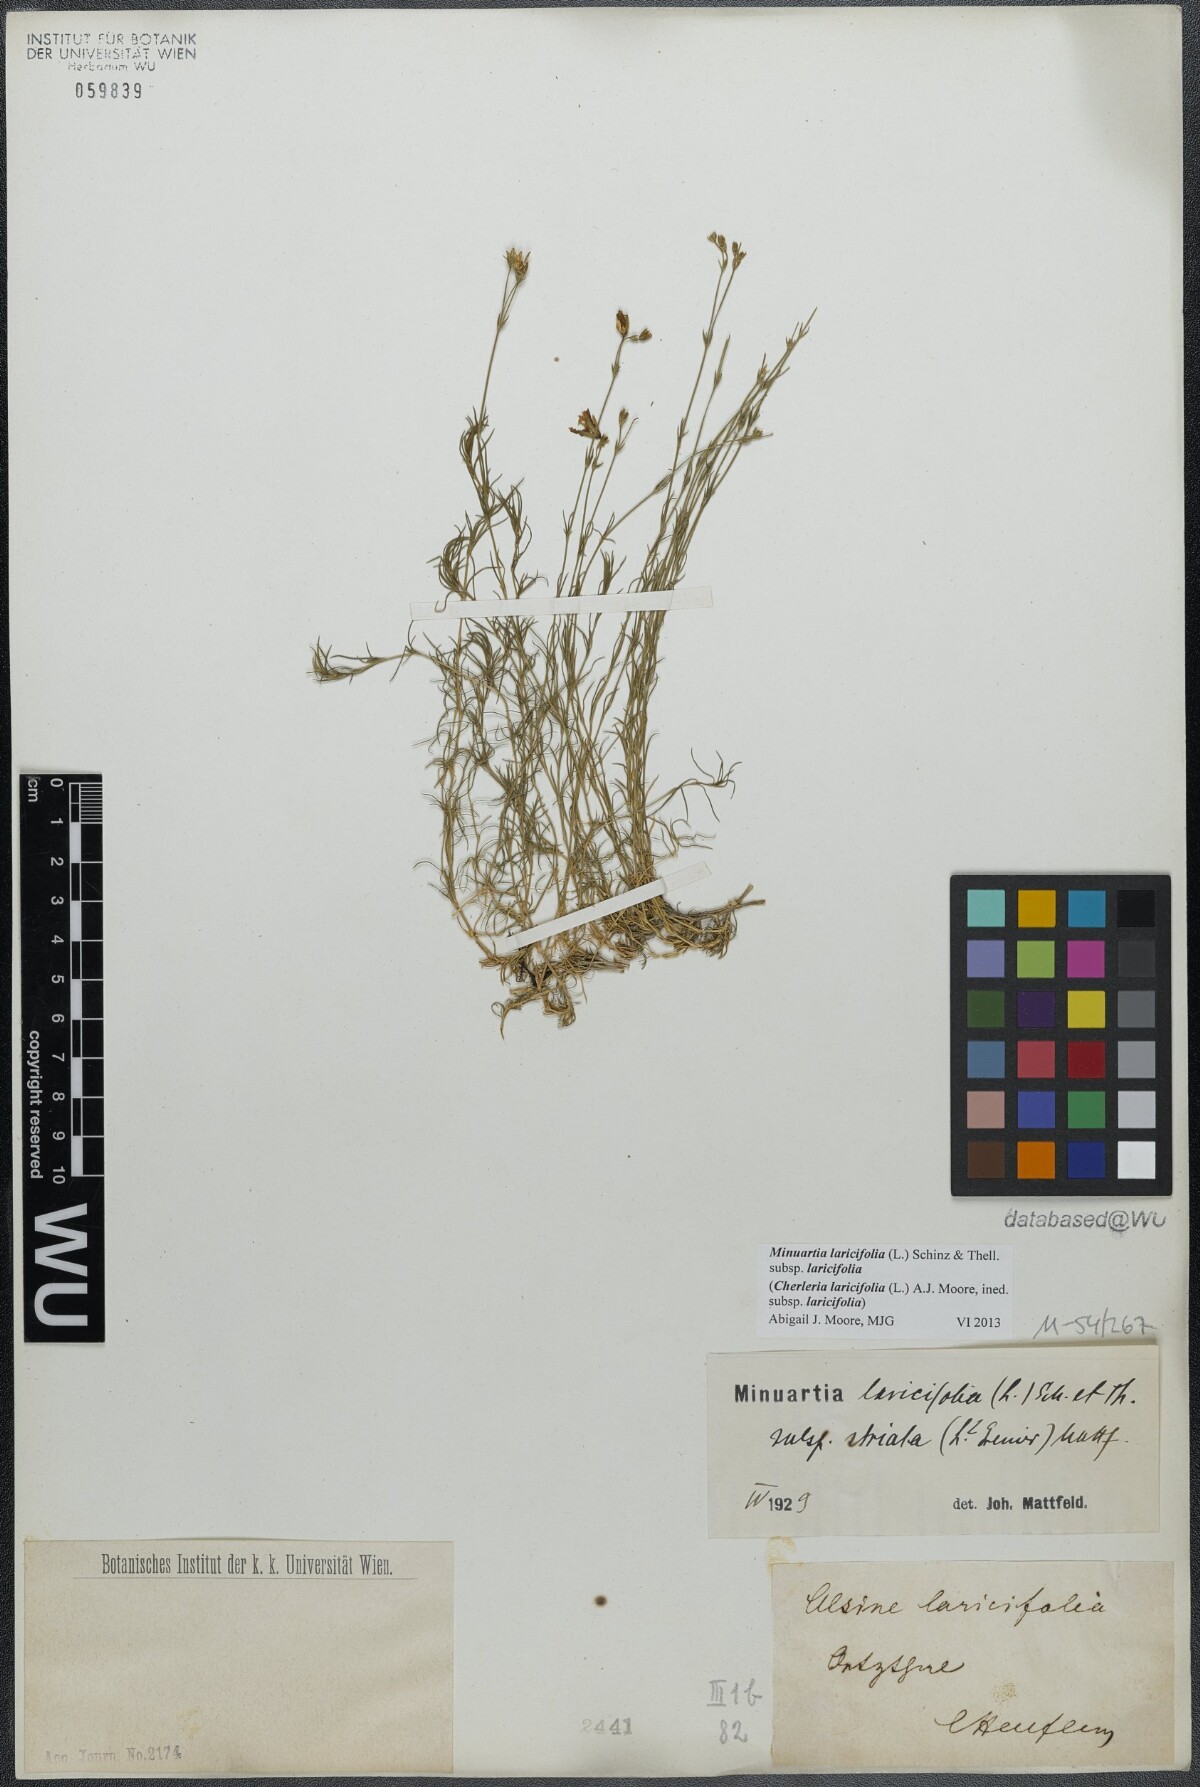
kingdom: Plantae
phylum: Tracheophyta
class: Magnoliopsida
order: Caryophyllales
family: Caryophyllaceae
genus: Cherleria
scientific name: Cherleria laricifolia
